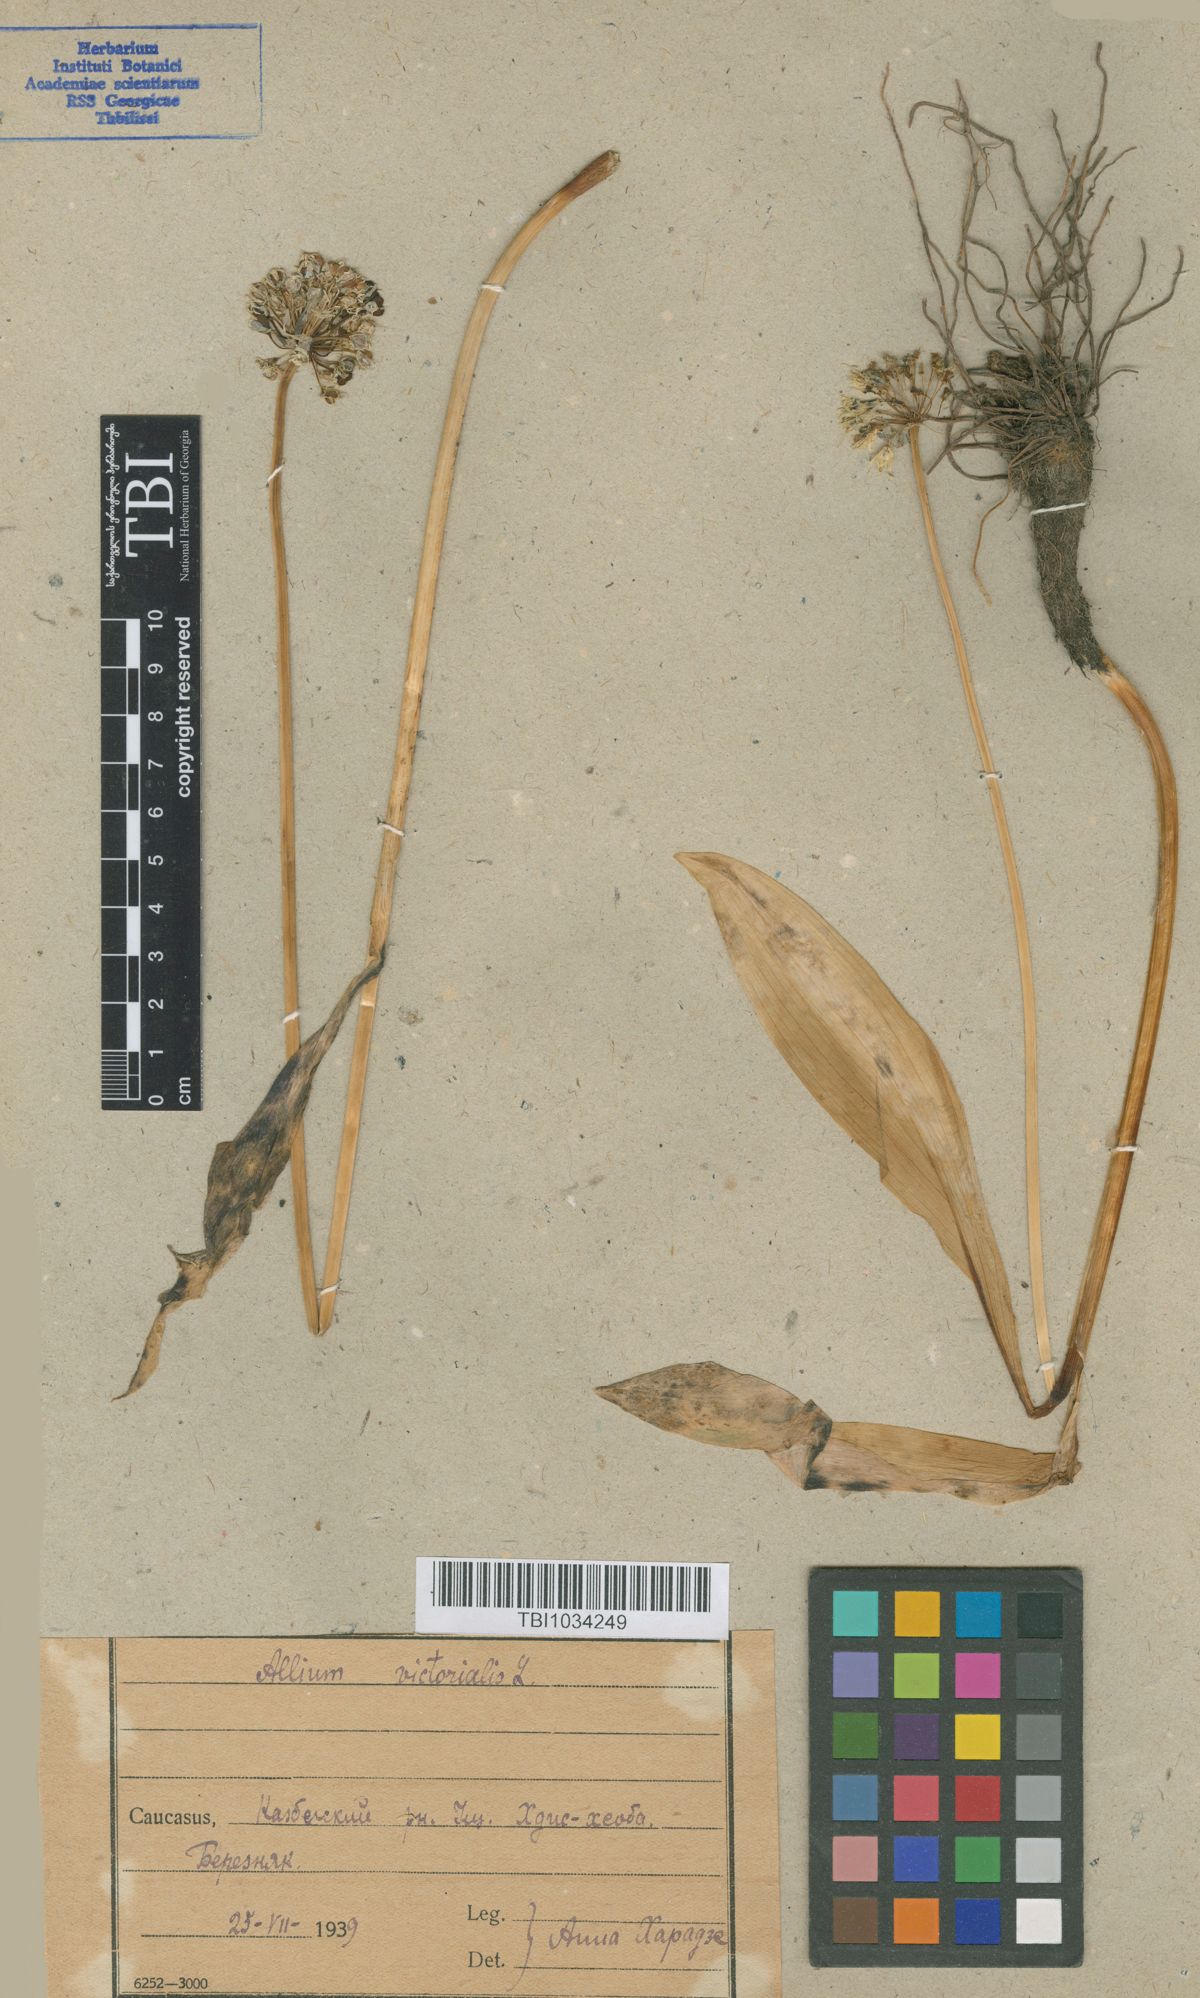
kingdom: Plantae
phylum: Tracheophyta
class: Liliopsida
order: Asparagales
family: Amaryllidaceae
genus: Allium
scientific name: Allium victorialis
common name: Alpine leek
